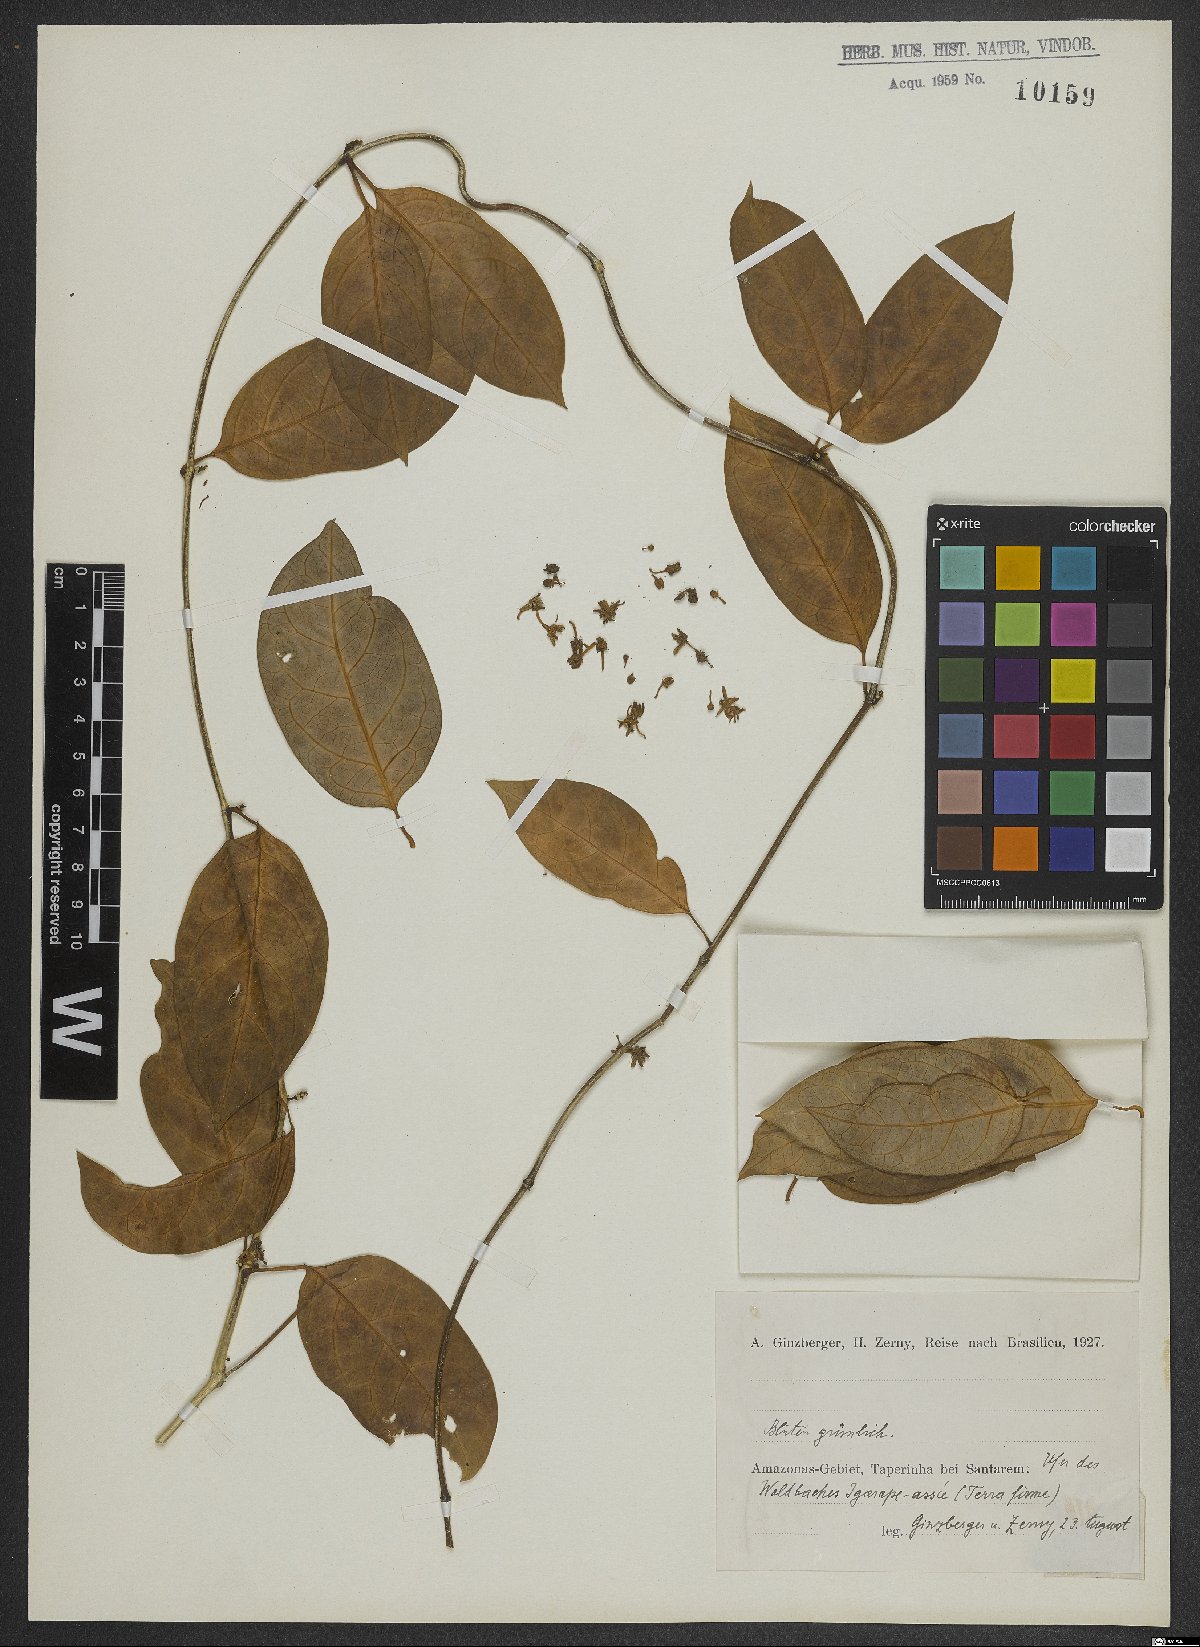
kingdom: Plantae
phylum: Tracheophyta
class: Magnoliopsida
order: Dipsacales
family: Valerianaceae
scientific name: Valerianaceae
